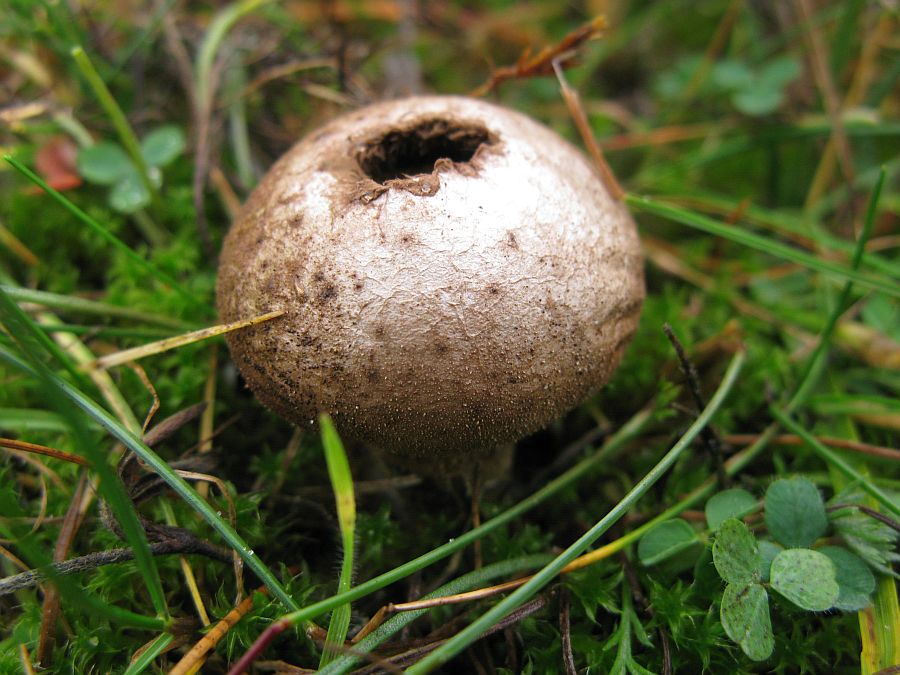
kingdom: Fungi
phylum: Basidiomycota
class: Agaricomycetes
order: Agaricales
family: Lycoperdaceae
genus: Lycoperdon
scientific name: Lycoperdon lividum
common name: mark-støvbold
